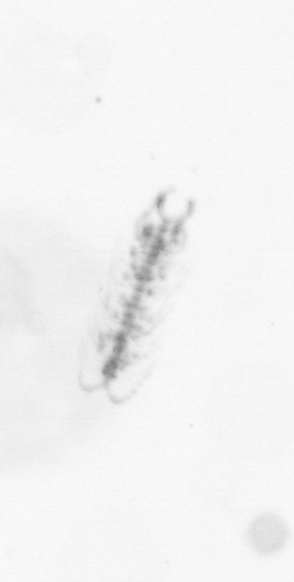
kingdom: Chromista
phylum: Ochrophyta
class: Bacillariophyceae
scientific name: Bacillariophyceae
